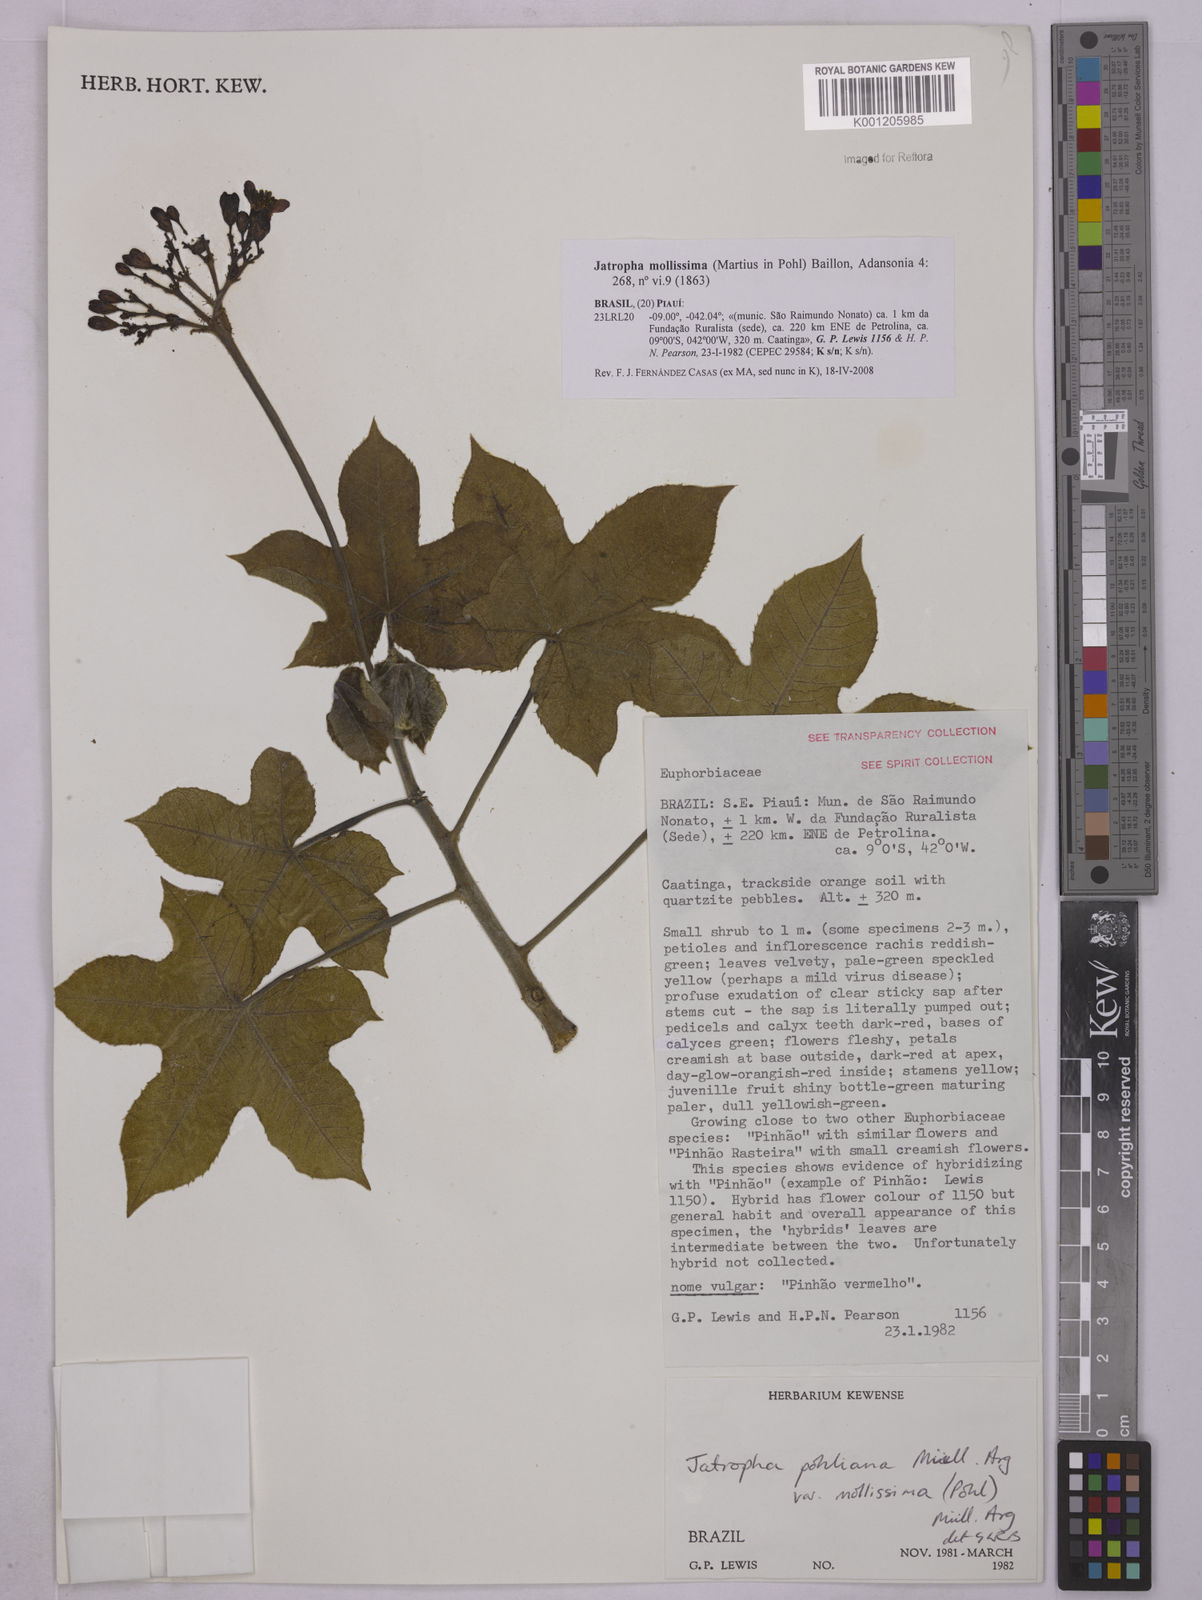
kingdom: Plantae
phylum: Tracheophyta
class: Magnoliopsida
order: Malpighiales
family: Euphorbiaceae
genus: Jatropha
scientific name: Jatropha mollissima
